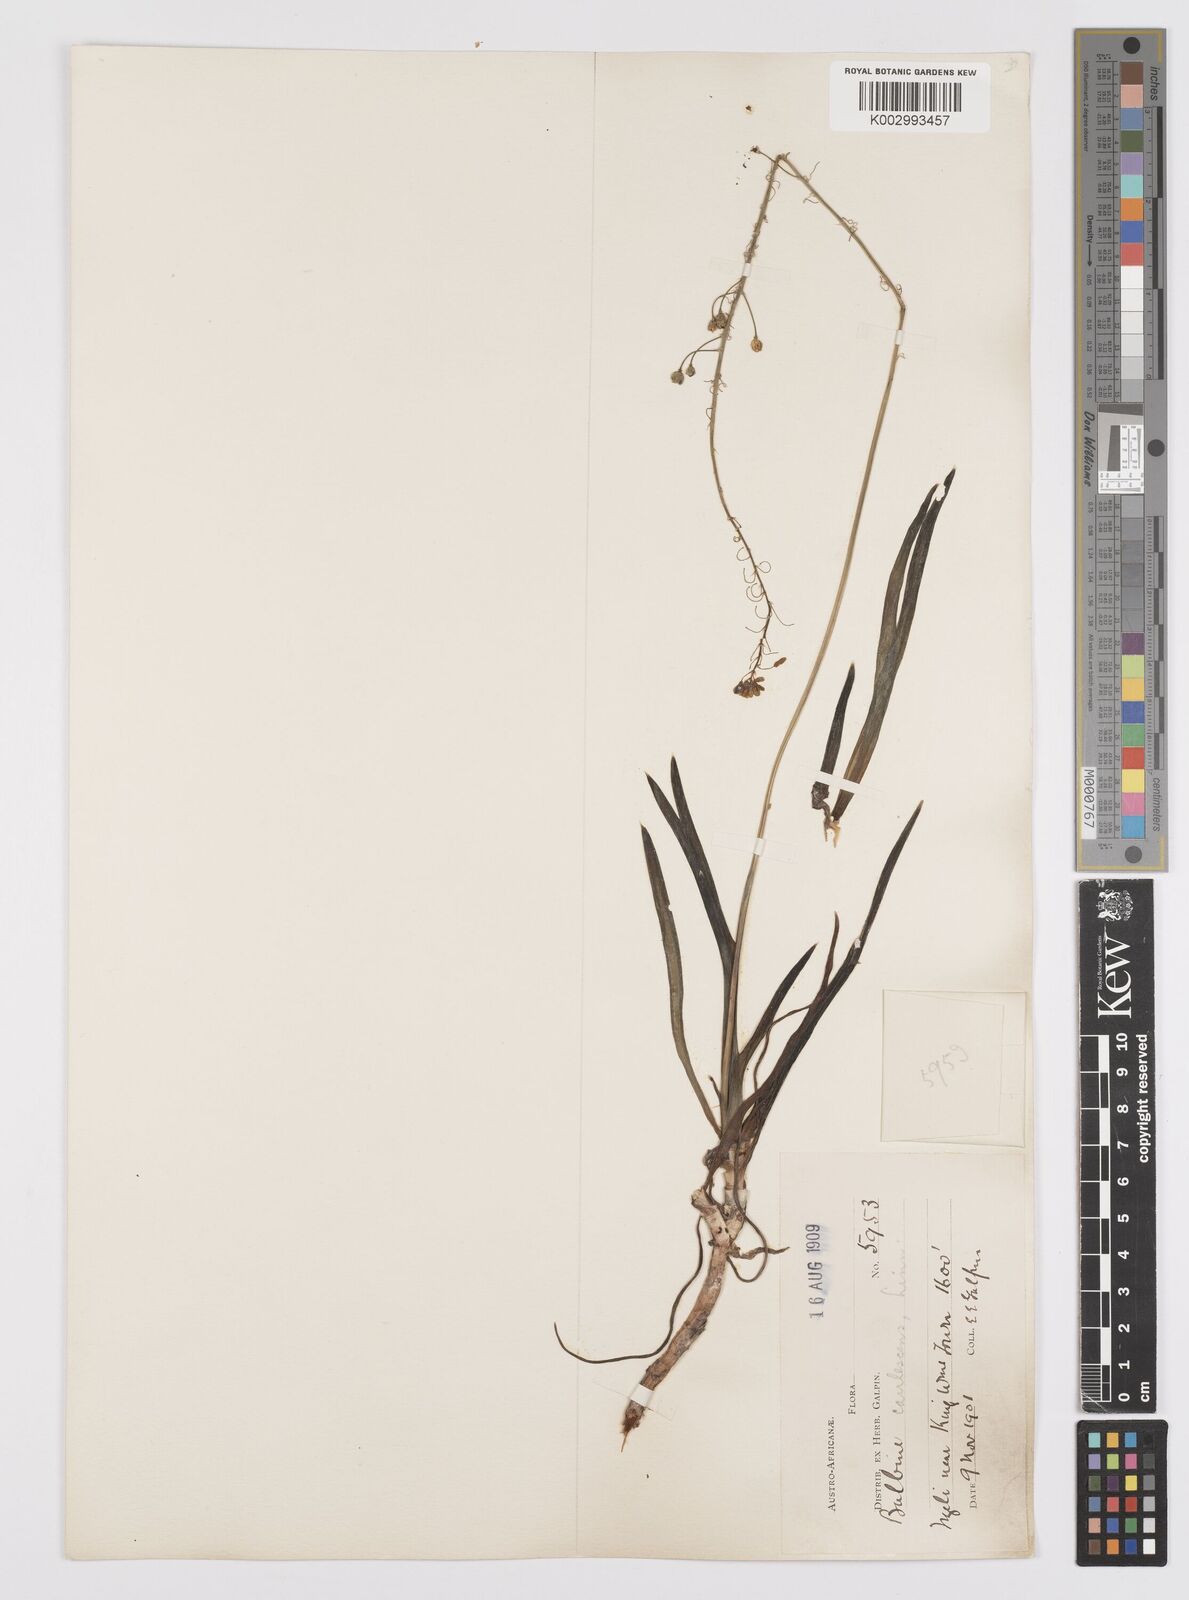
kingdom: Plantae
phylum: Tracheophyta
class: Liliopsida
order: Asparagales
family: Asphodelaceae
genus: Bulbine
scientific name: Bulbine frutescens
